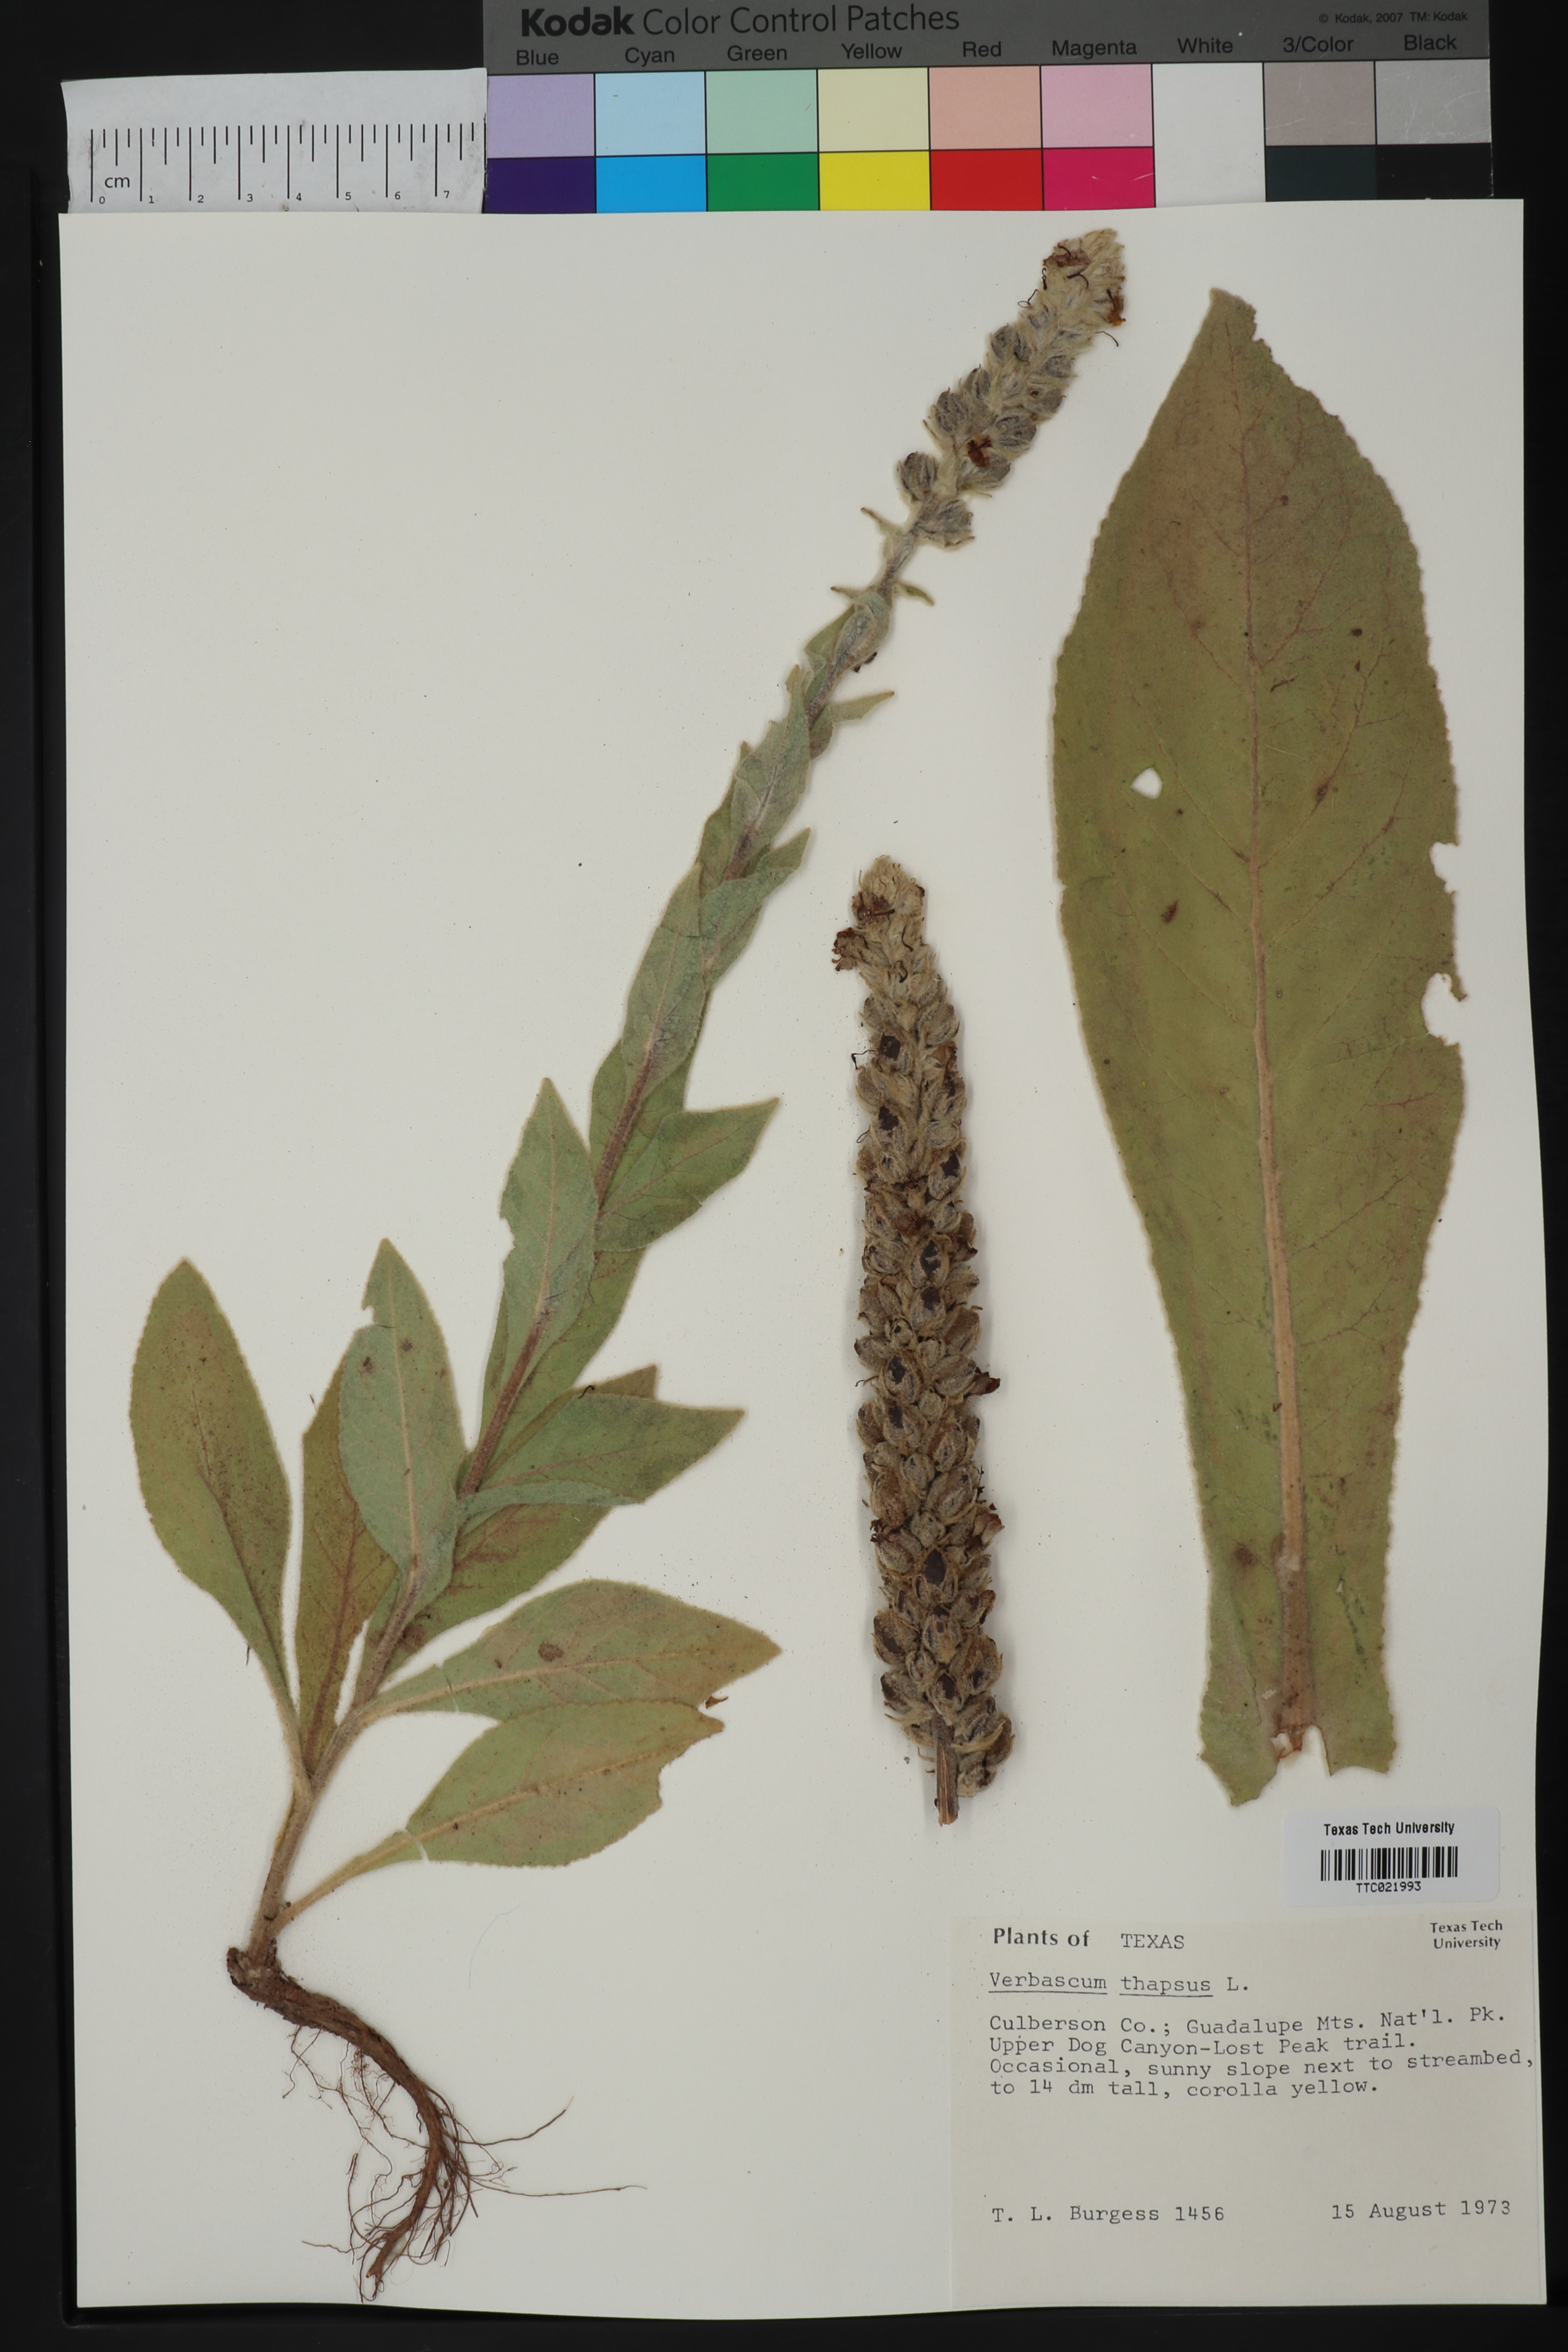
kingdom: Plantae
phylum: Tracheophyta
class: Magnoliopsida
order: Lamiales
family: Scrophulariaceae
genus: Verbascum
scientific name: Verbascum thapsus
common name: Common mullein
